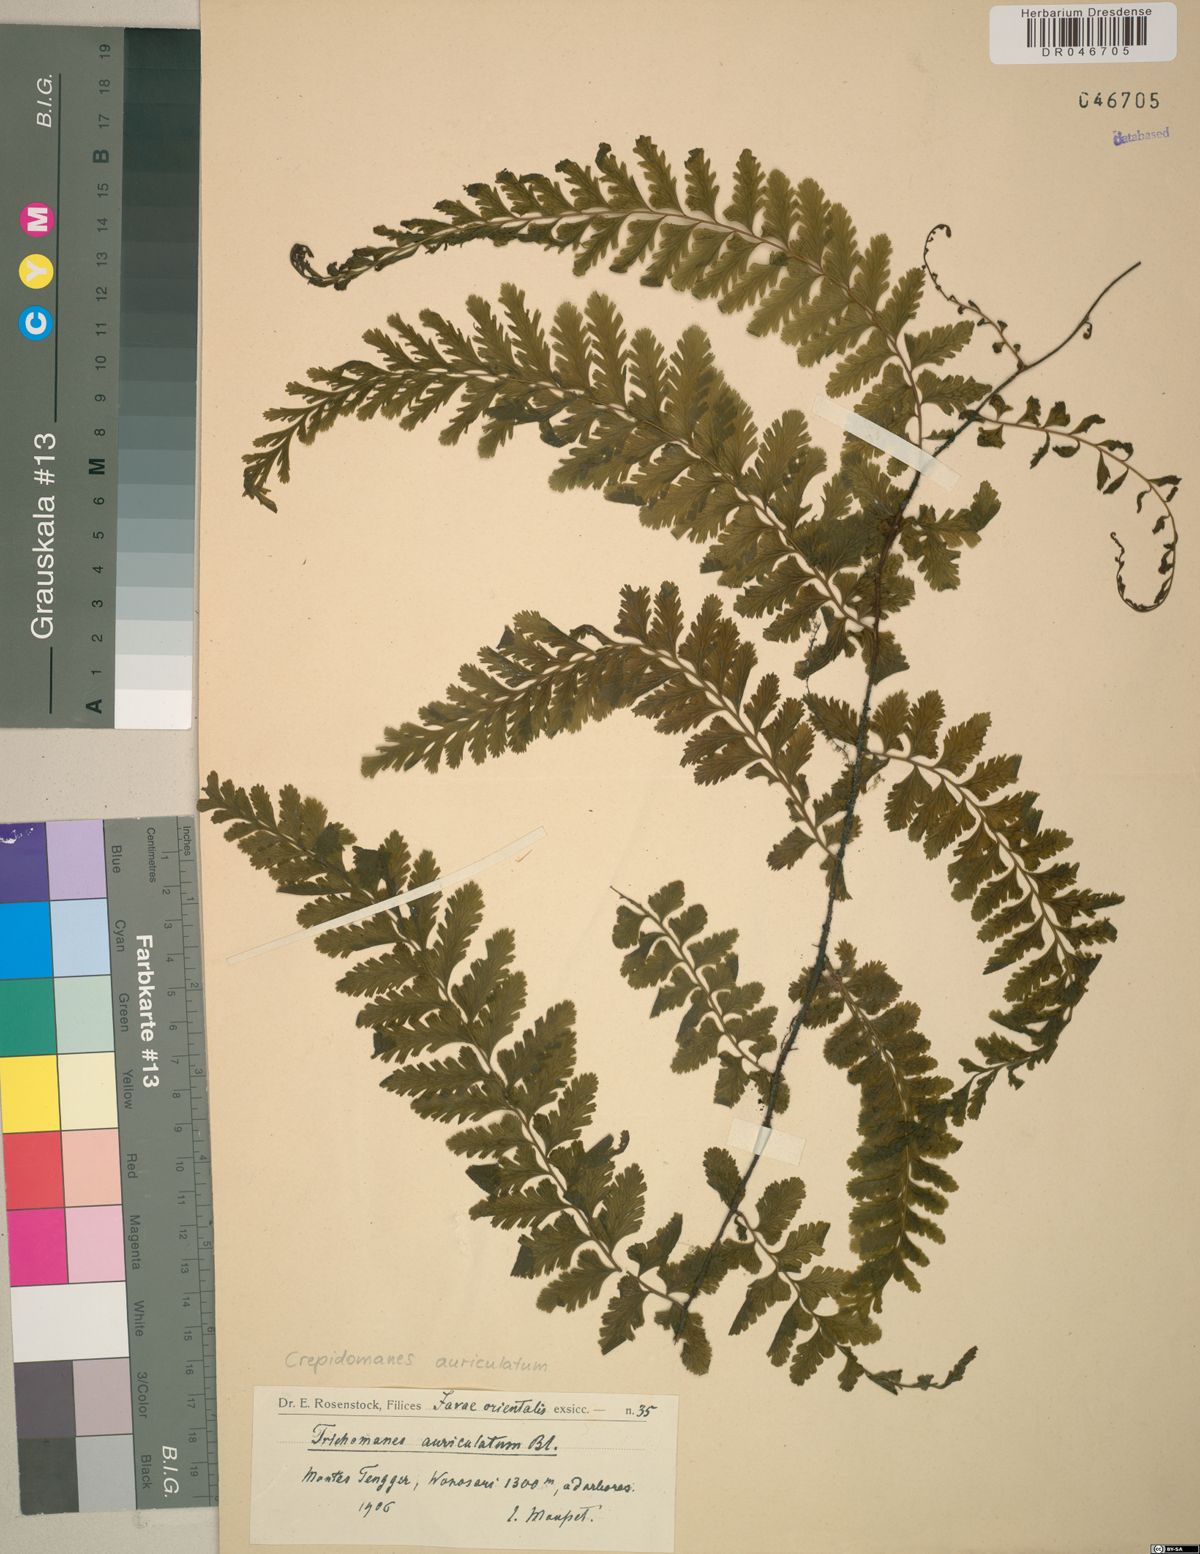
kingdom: Plantae
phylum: Tracheophyta
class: Polypodiopsida
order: Hymenophyllales
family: Hymenophyllaceae
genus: Vandenboschia
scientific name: Vandenboschia auriculata
